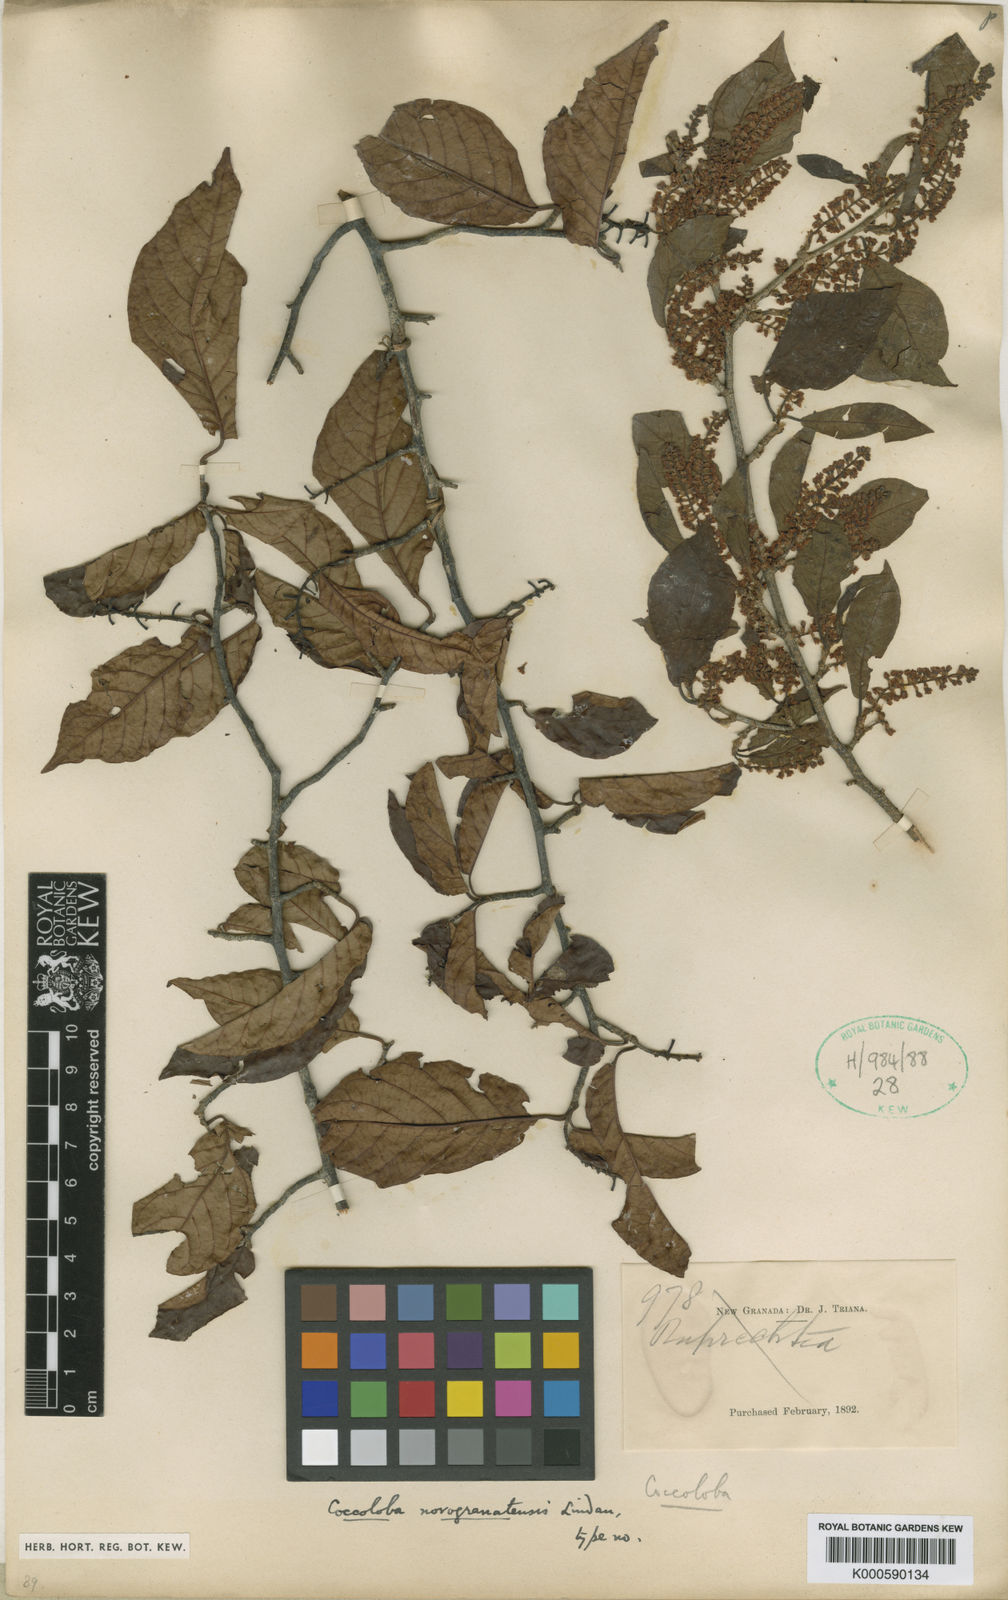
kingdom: Plantae
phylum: Tracheophyta
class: Magnoliopsida
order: Caryophyllales
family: Polygonaceae
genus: Coccoloba
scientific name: Coccoloba coronata
